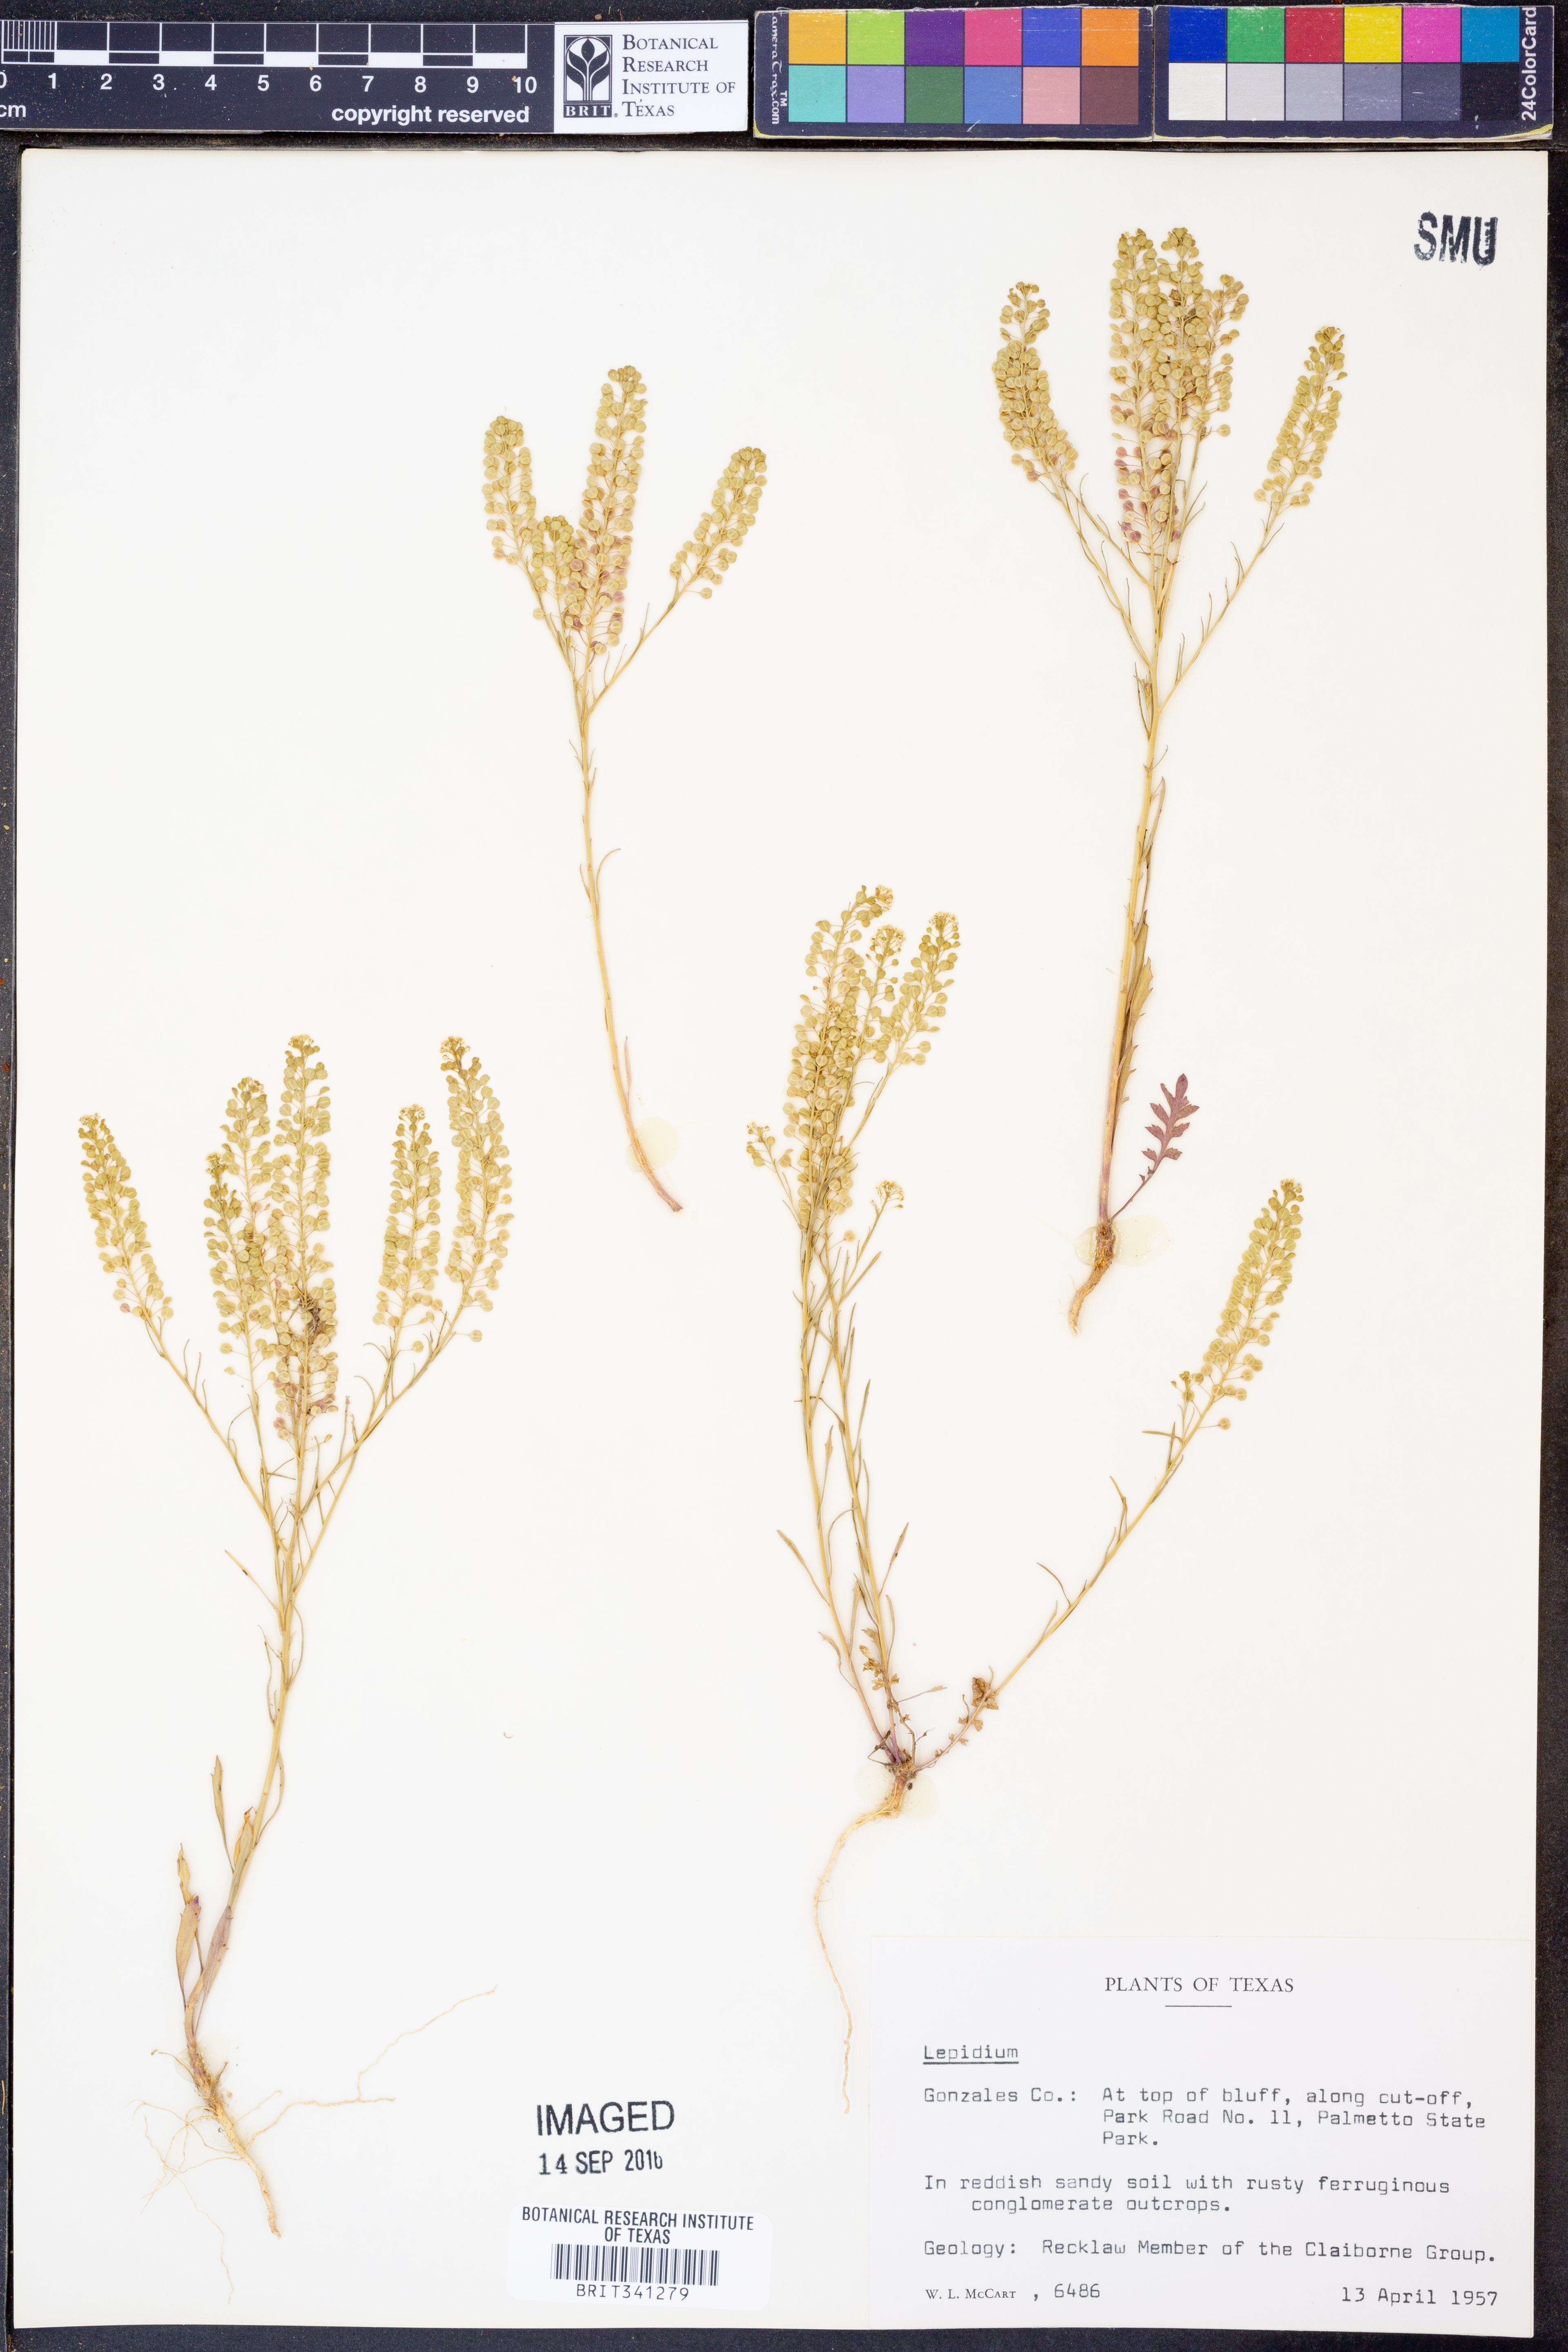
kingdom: Plantae
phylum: Tracheophyta
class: Magnoliopsida
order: Brassicales
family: Brassicaceae
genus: Lepidium
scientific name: Lepidium
